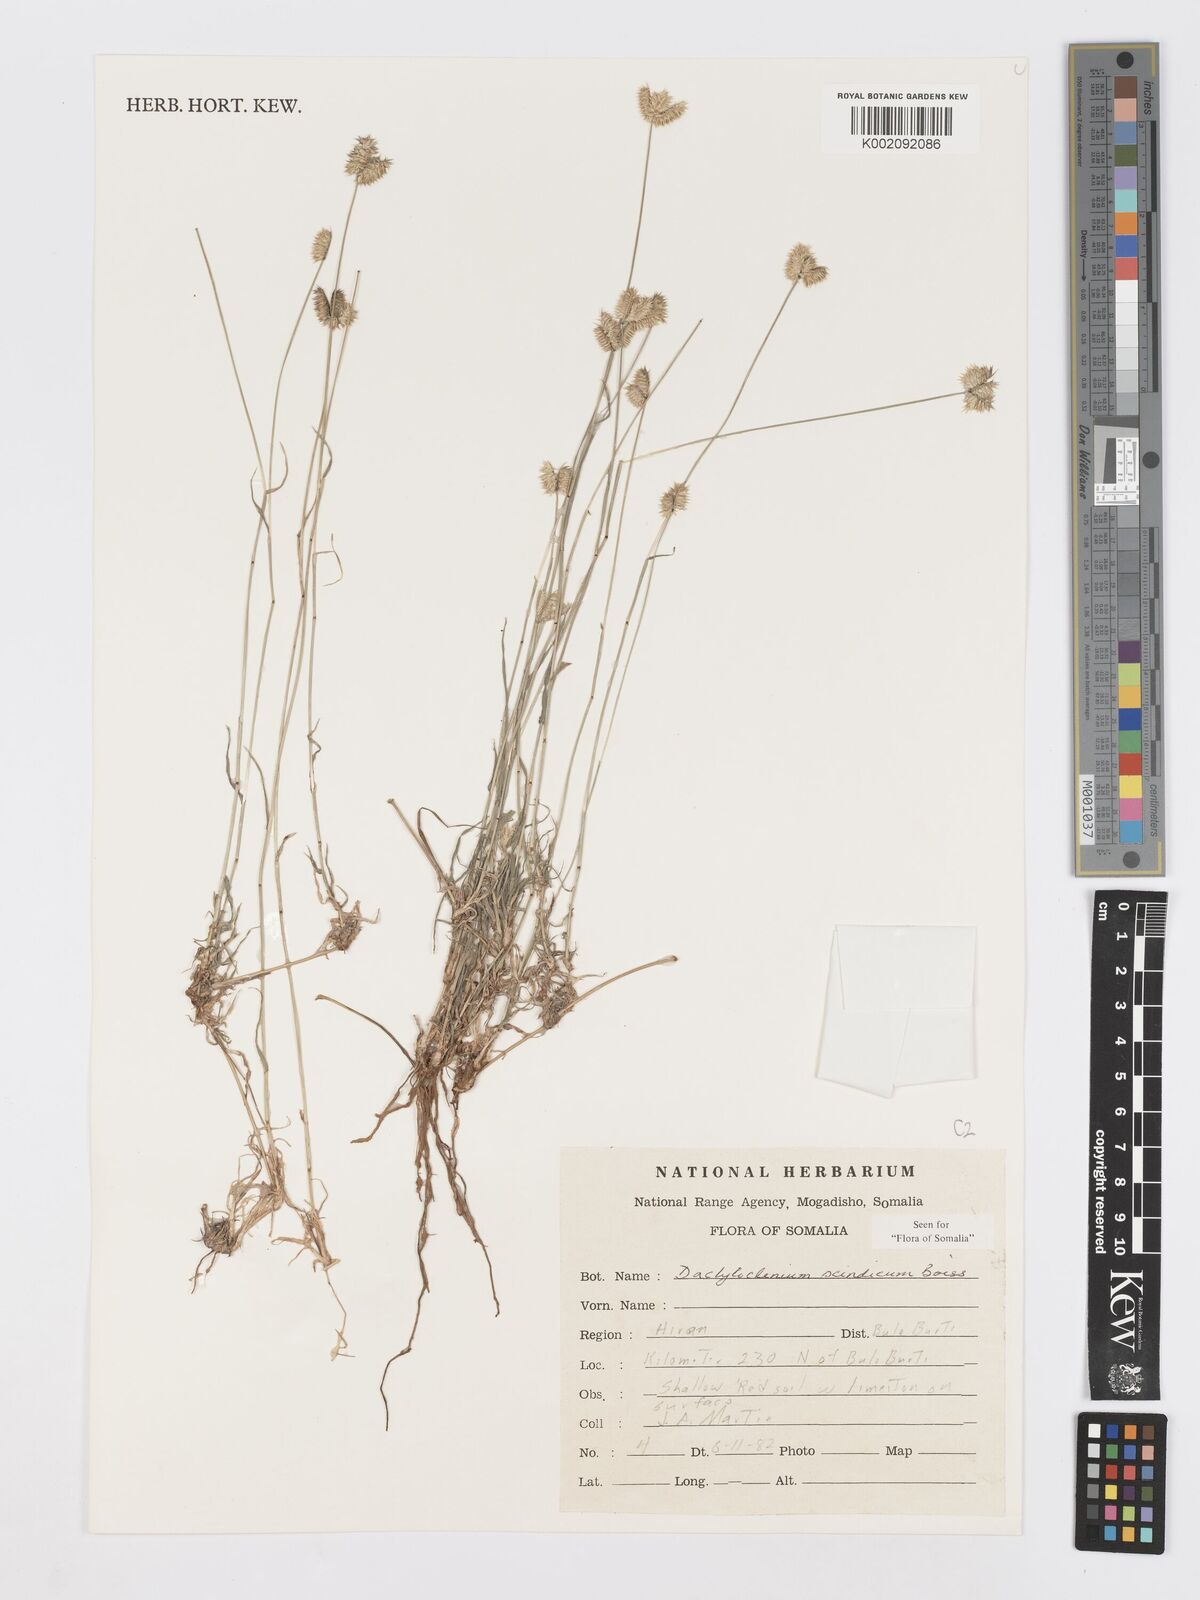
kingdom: Plantae
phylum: Tracheophyta
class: Liliopsida
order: Poales
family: Poaceae
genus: Dactyloctenium
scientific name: Dactyloctenium scindicum
